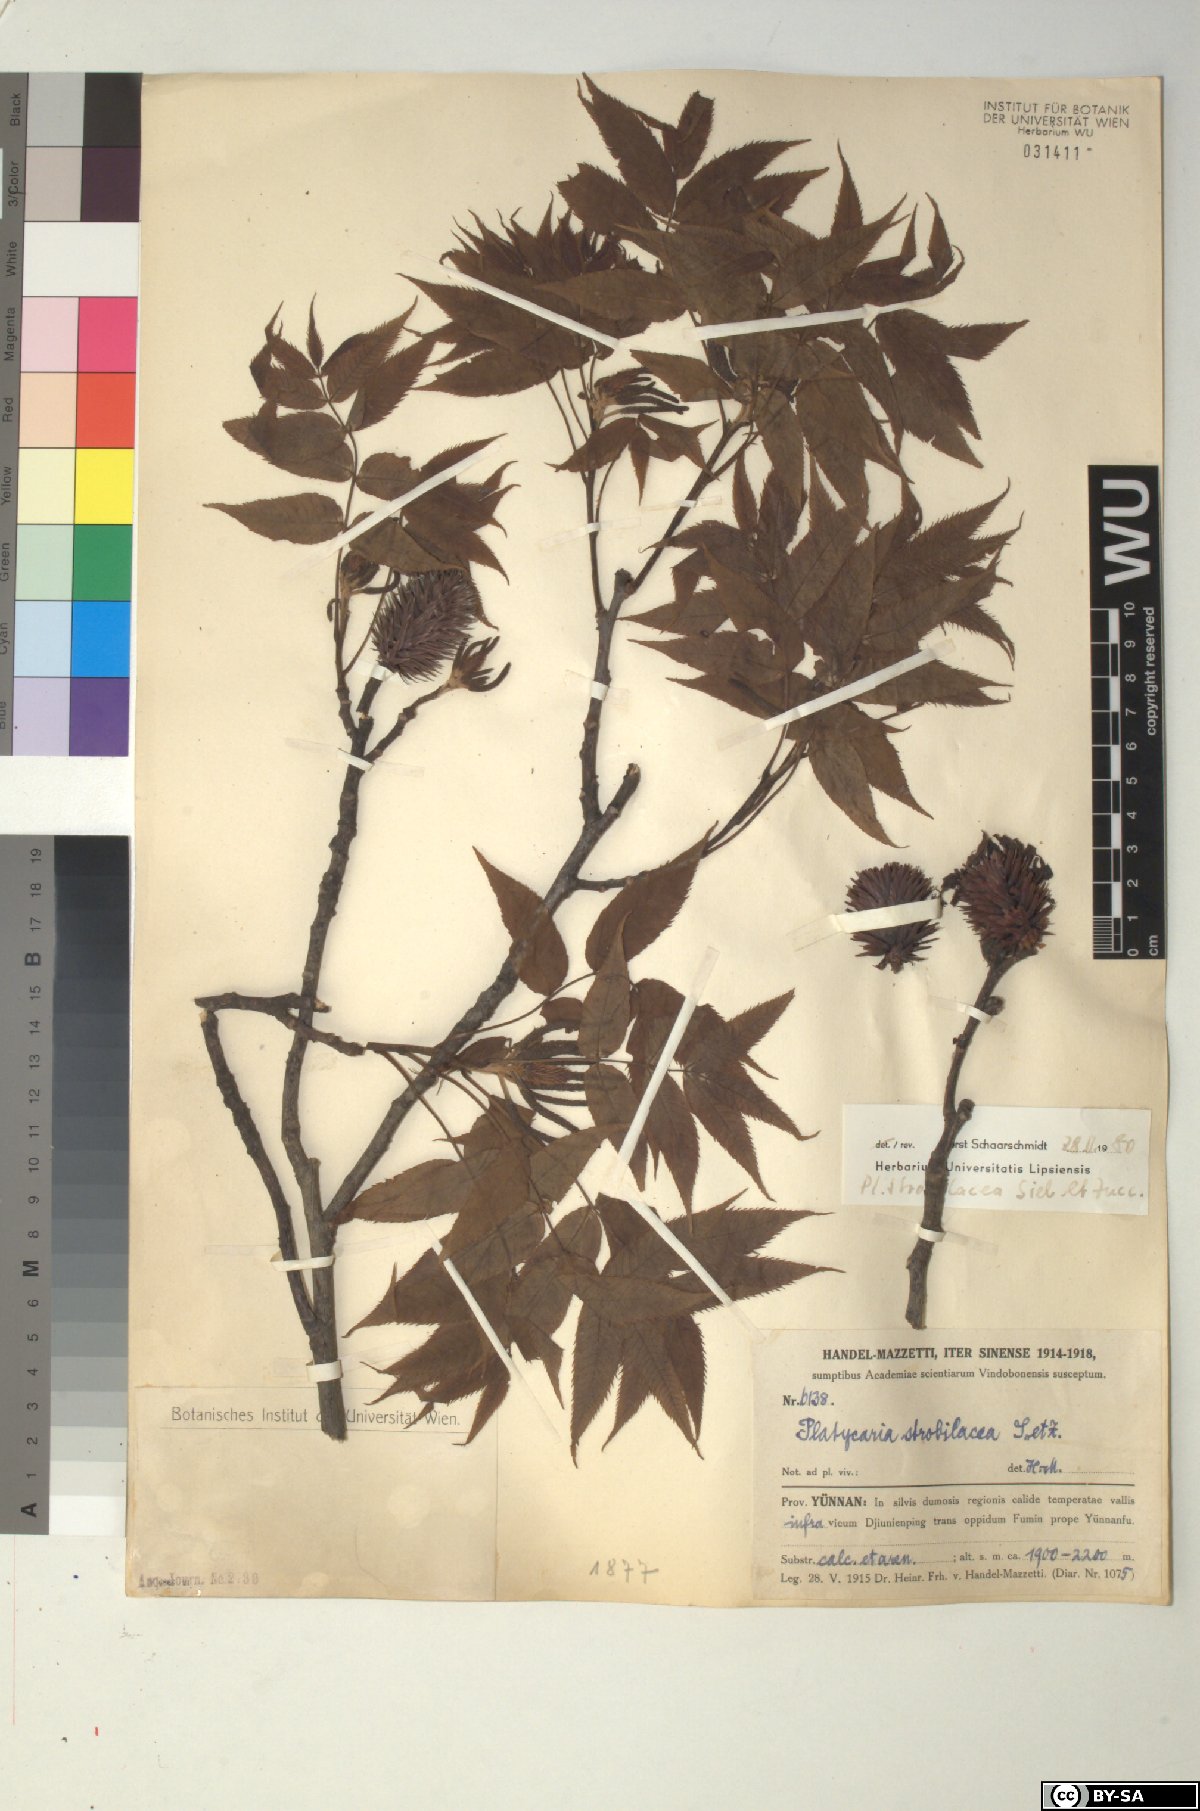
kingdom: Plantae
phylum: Tracheophyta
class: Magnoliopsida
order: Fagales
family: Juglandaceae
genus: Platycarya
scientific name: Platycarya strobilacea
